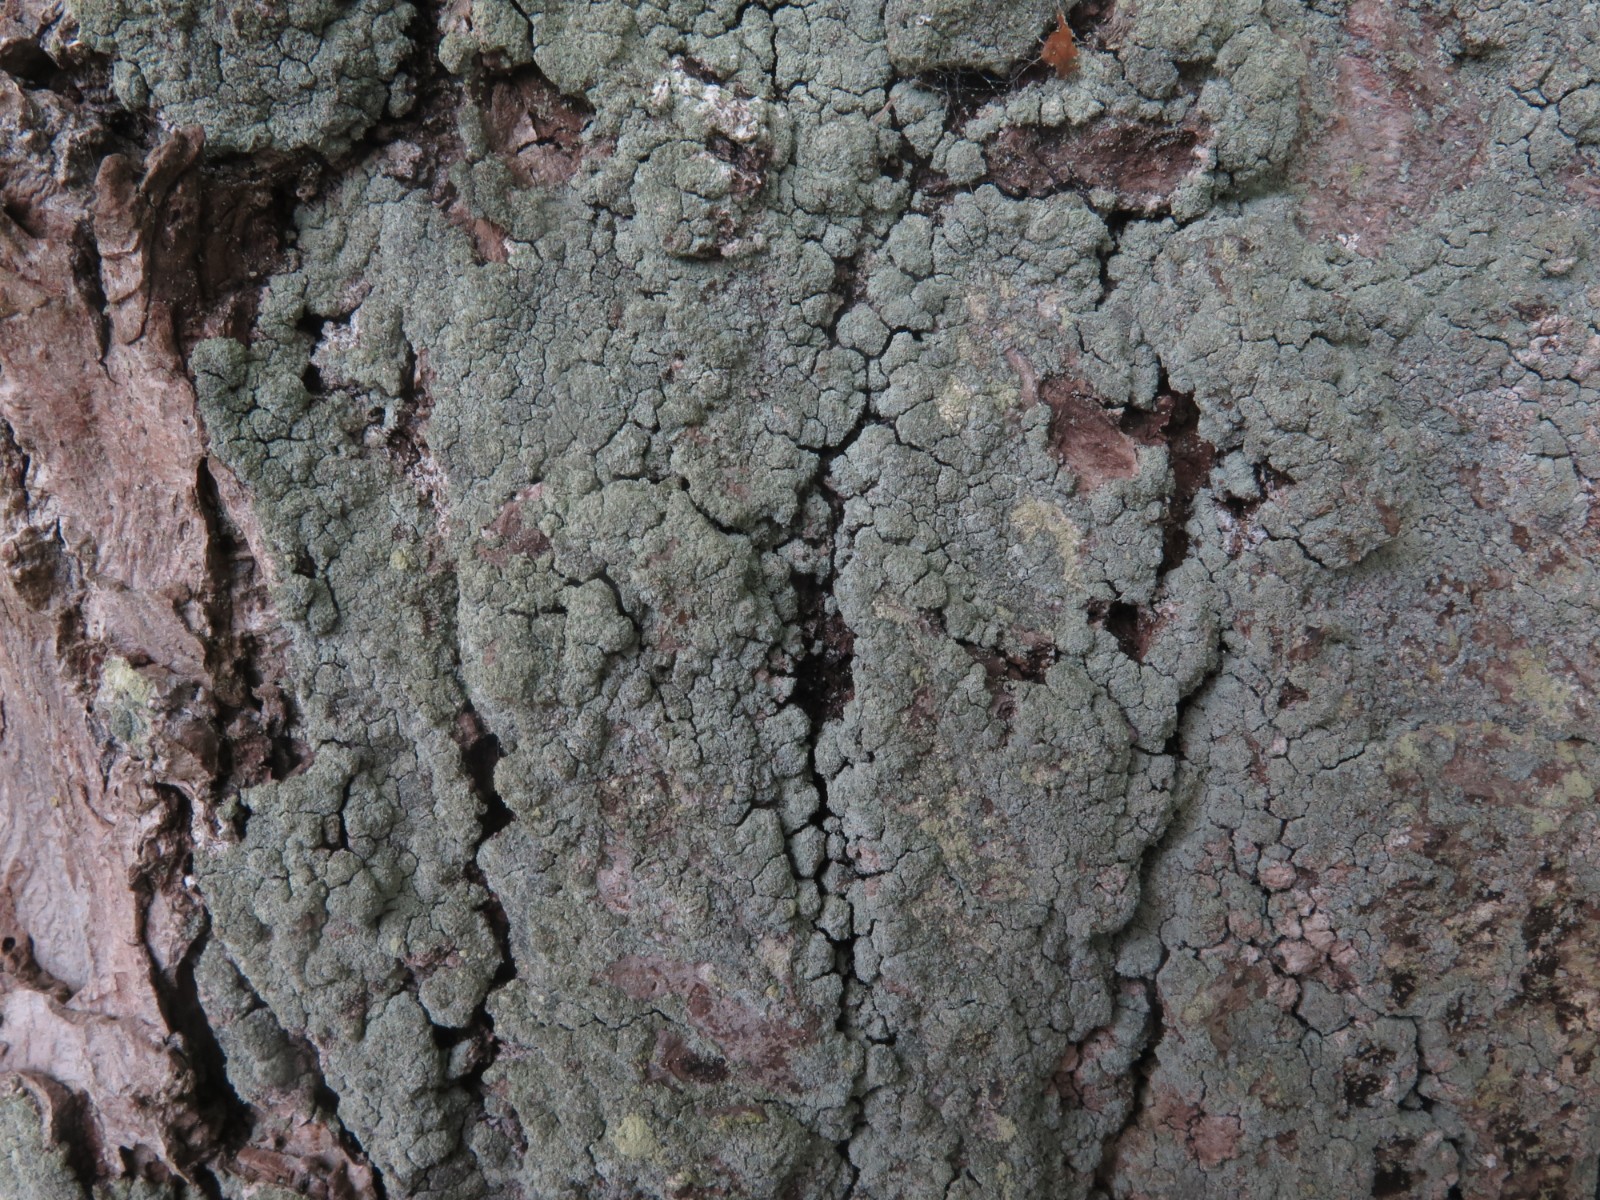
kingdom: Fungi
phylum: Ascomycota
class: Lecanoromycetes
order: Lecanorales
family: Stereocaulaceae
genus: Lepraria
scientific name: Lepraria incana
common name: almindelig støvlav
